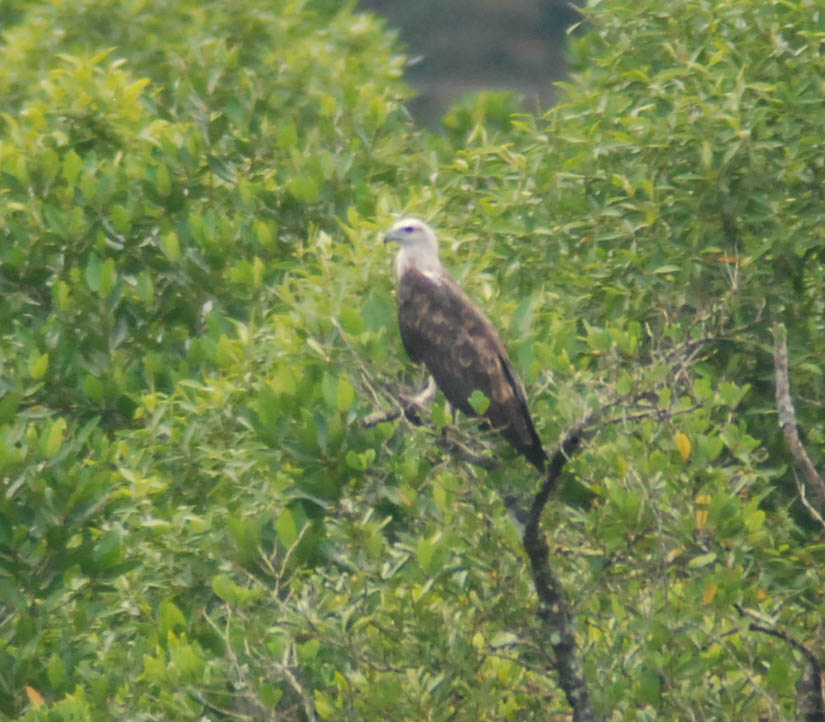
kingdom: Animalia
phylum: Chordata
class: Aves
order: Accipitriformes
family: Accipitridae
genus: Haliaeetus
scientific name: Haliaeetus leucogaster
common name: White-bellied sea eagle
